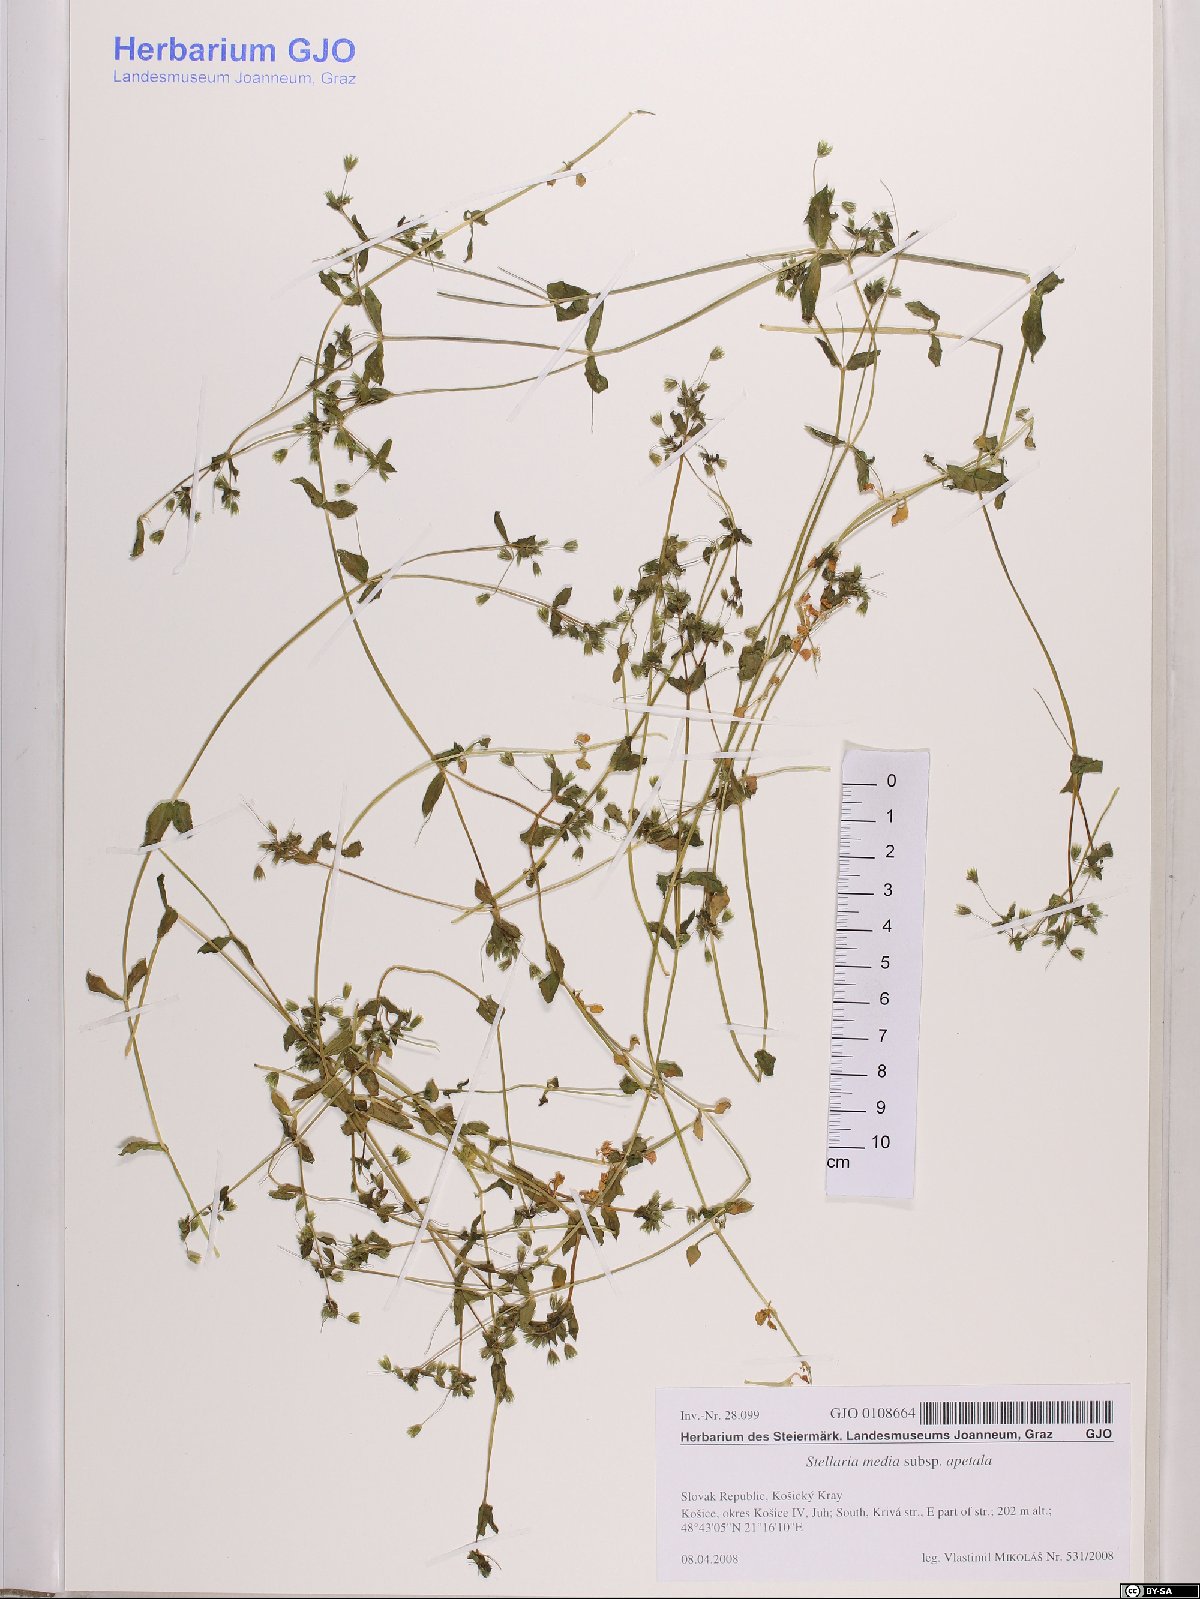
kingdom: Plantae
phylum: Tracheophyta
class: Magnoliopsida
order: Caryophyllales
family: Caryophyllaceae
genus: Stellaria
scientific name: Stellaria apetala
